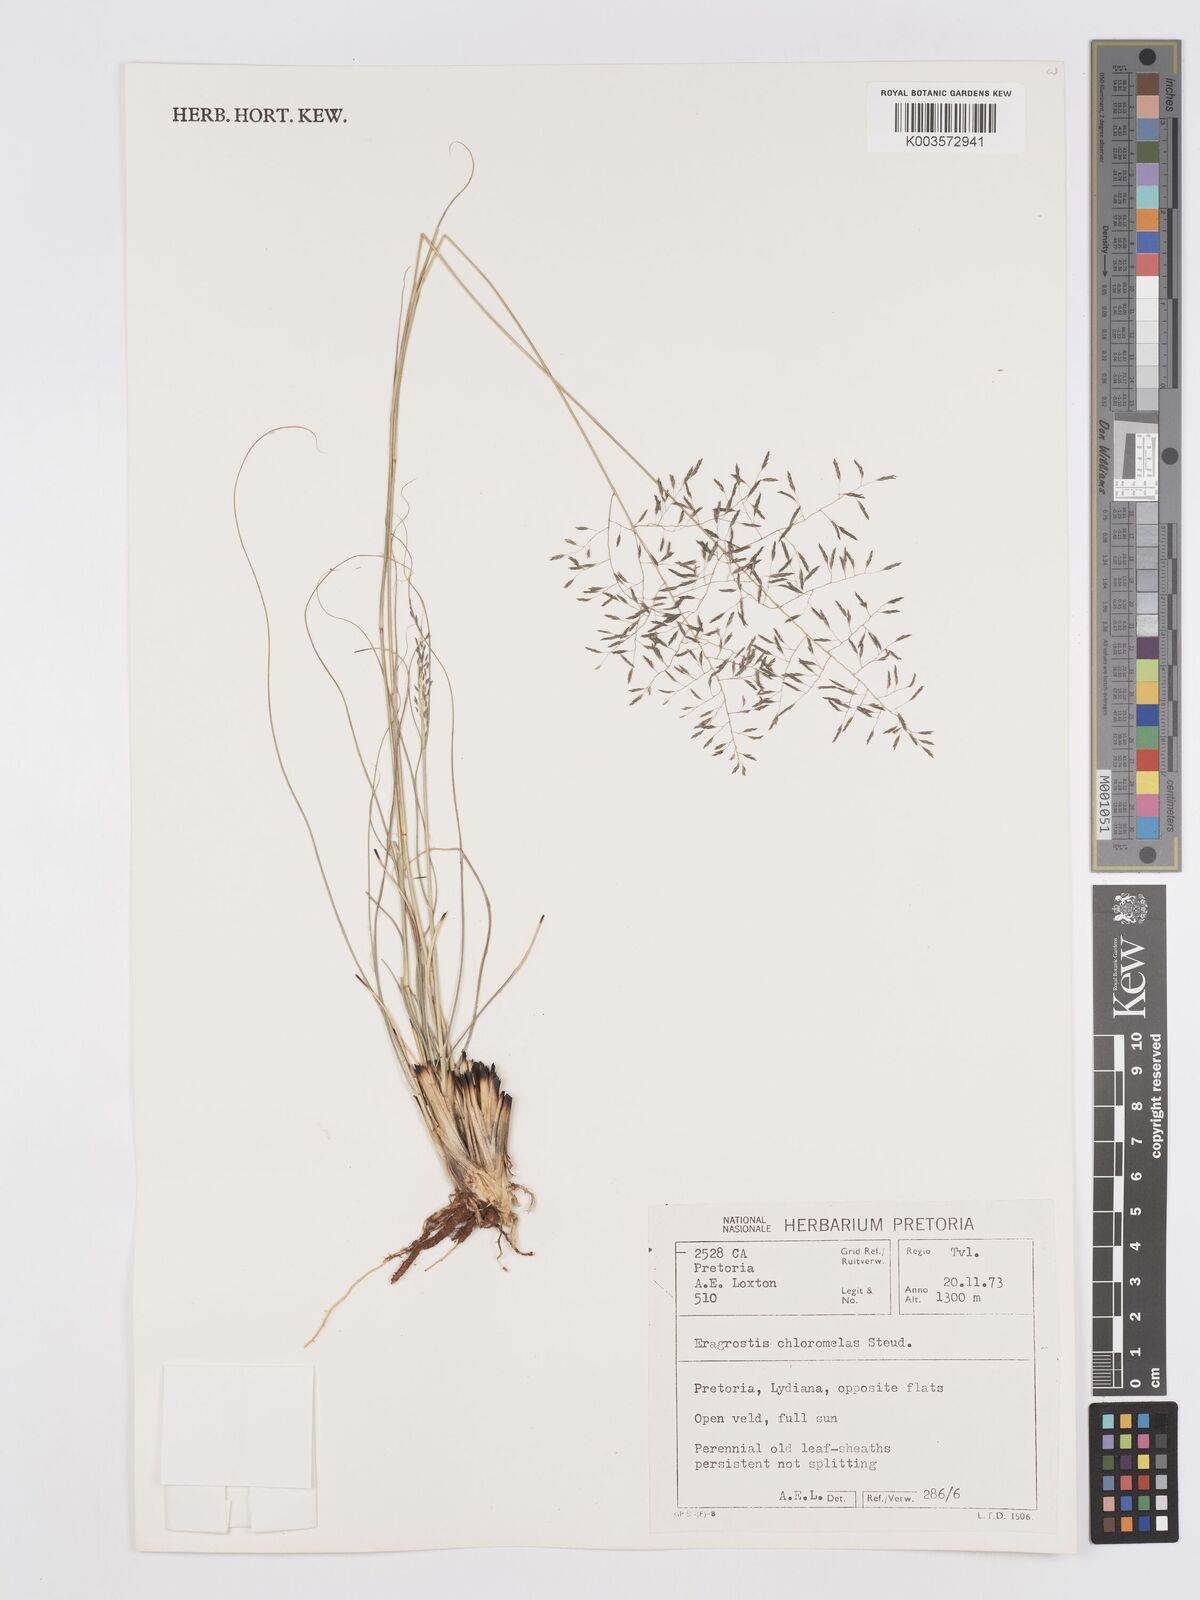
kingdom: Plantae
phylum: Tracheophyta
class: Liliopsida
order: Poales
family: Poaceae
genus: Eragrostis
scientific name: Eragrostis curvula
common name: African love-grass
